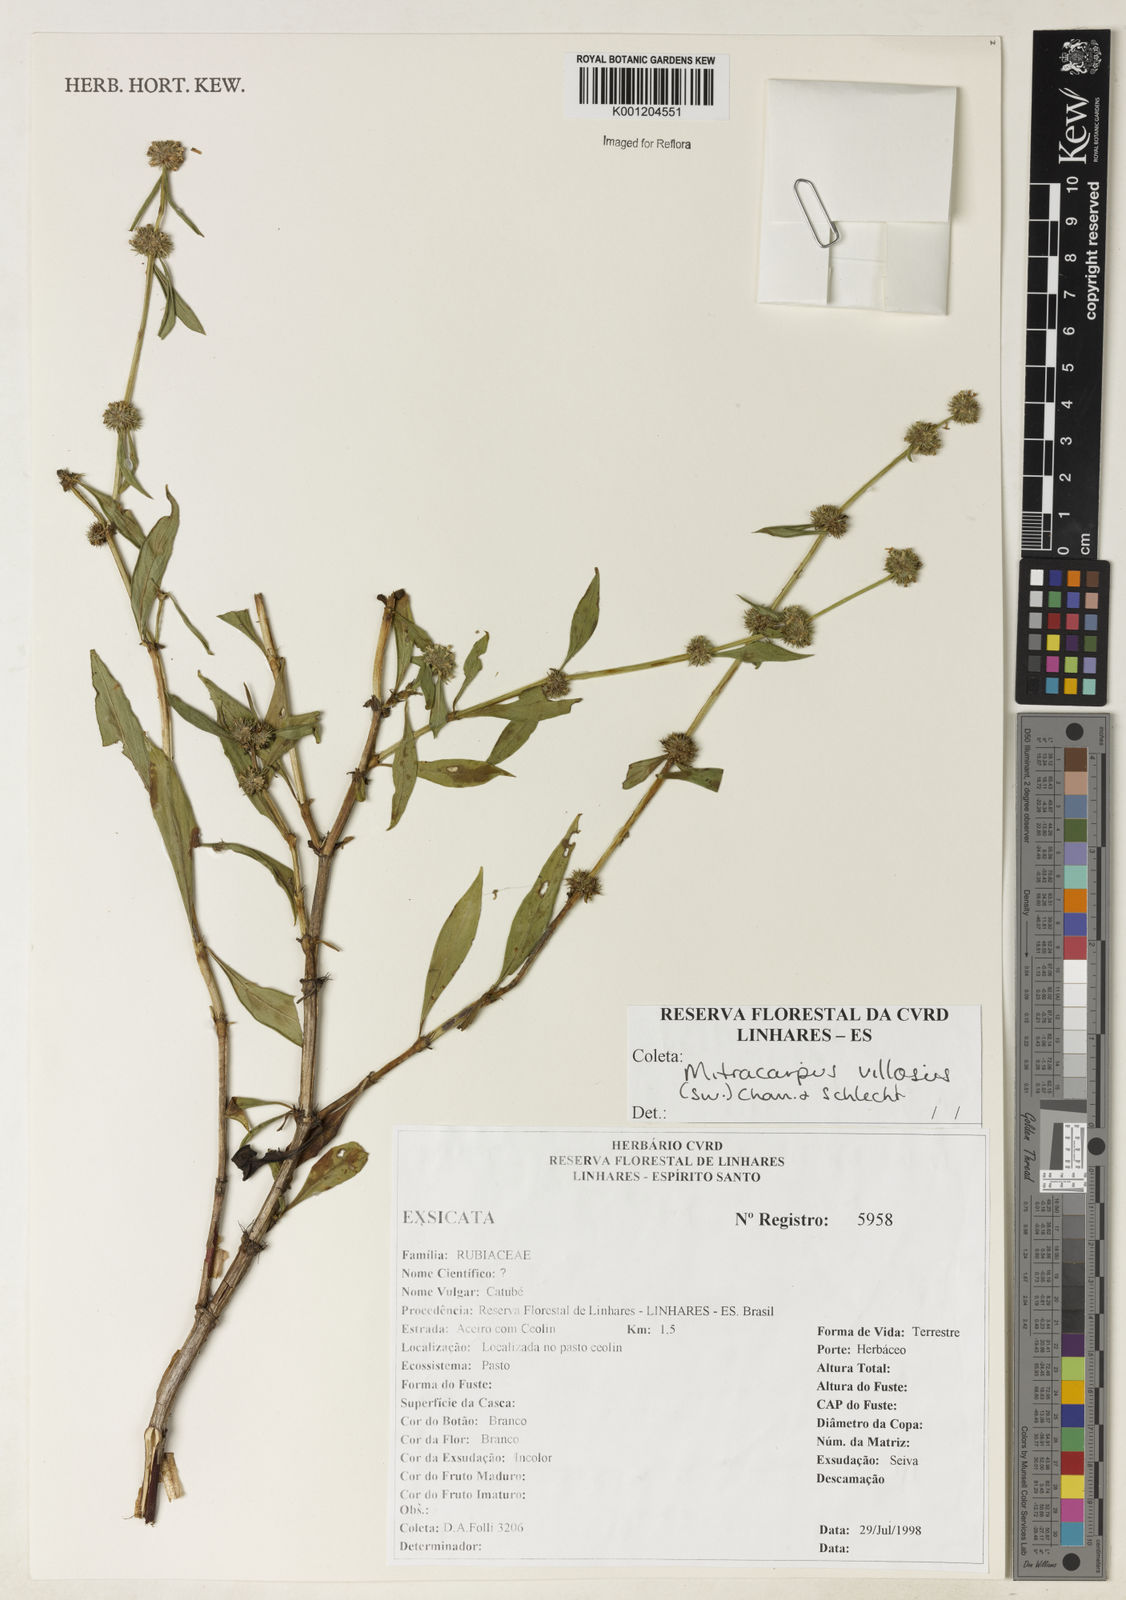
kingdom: Plantae
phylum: Tracheophyta
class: Magnoliopsida
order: Gentianales
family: Rubiaceae
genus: Mitracarpus
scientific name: Mitracarpus
